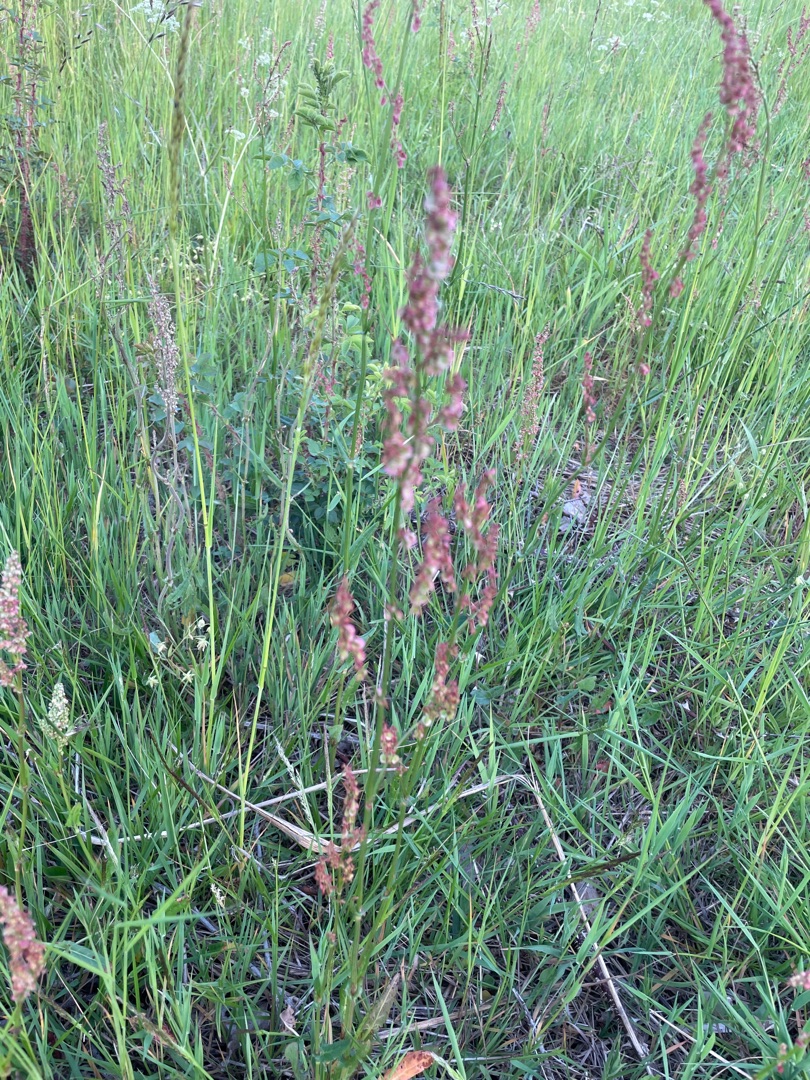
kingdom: Plantae
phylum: Tracheophyta
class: Magnoliopsida
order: Caryophyllales
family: Polygonaceae
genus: Rumex
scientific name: Rumex acetosa
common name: Almindelig syre
